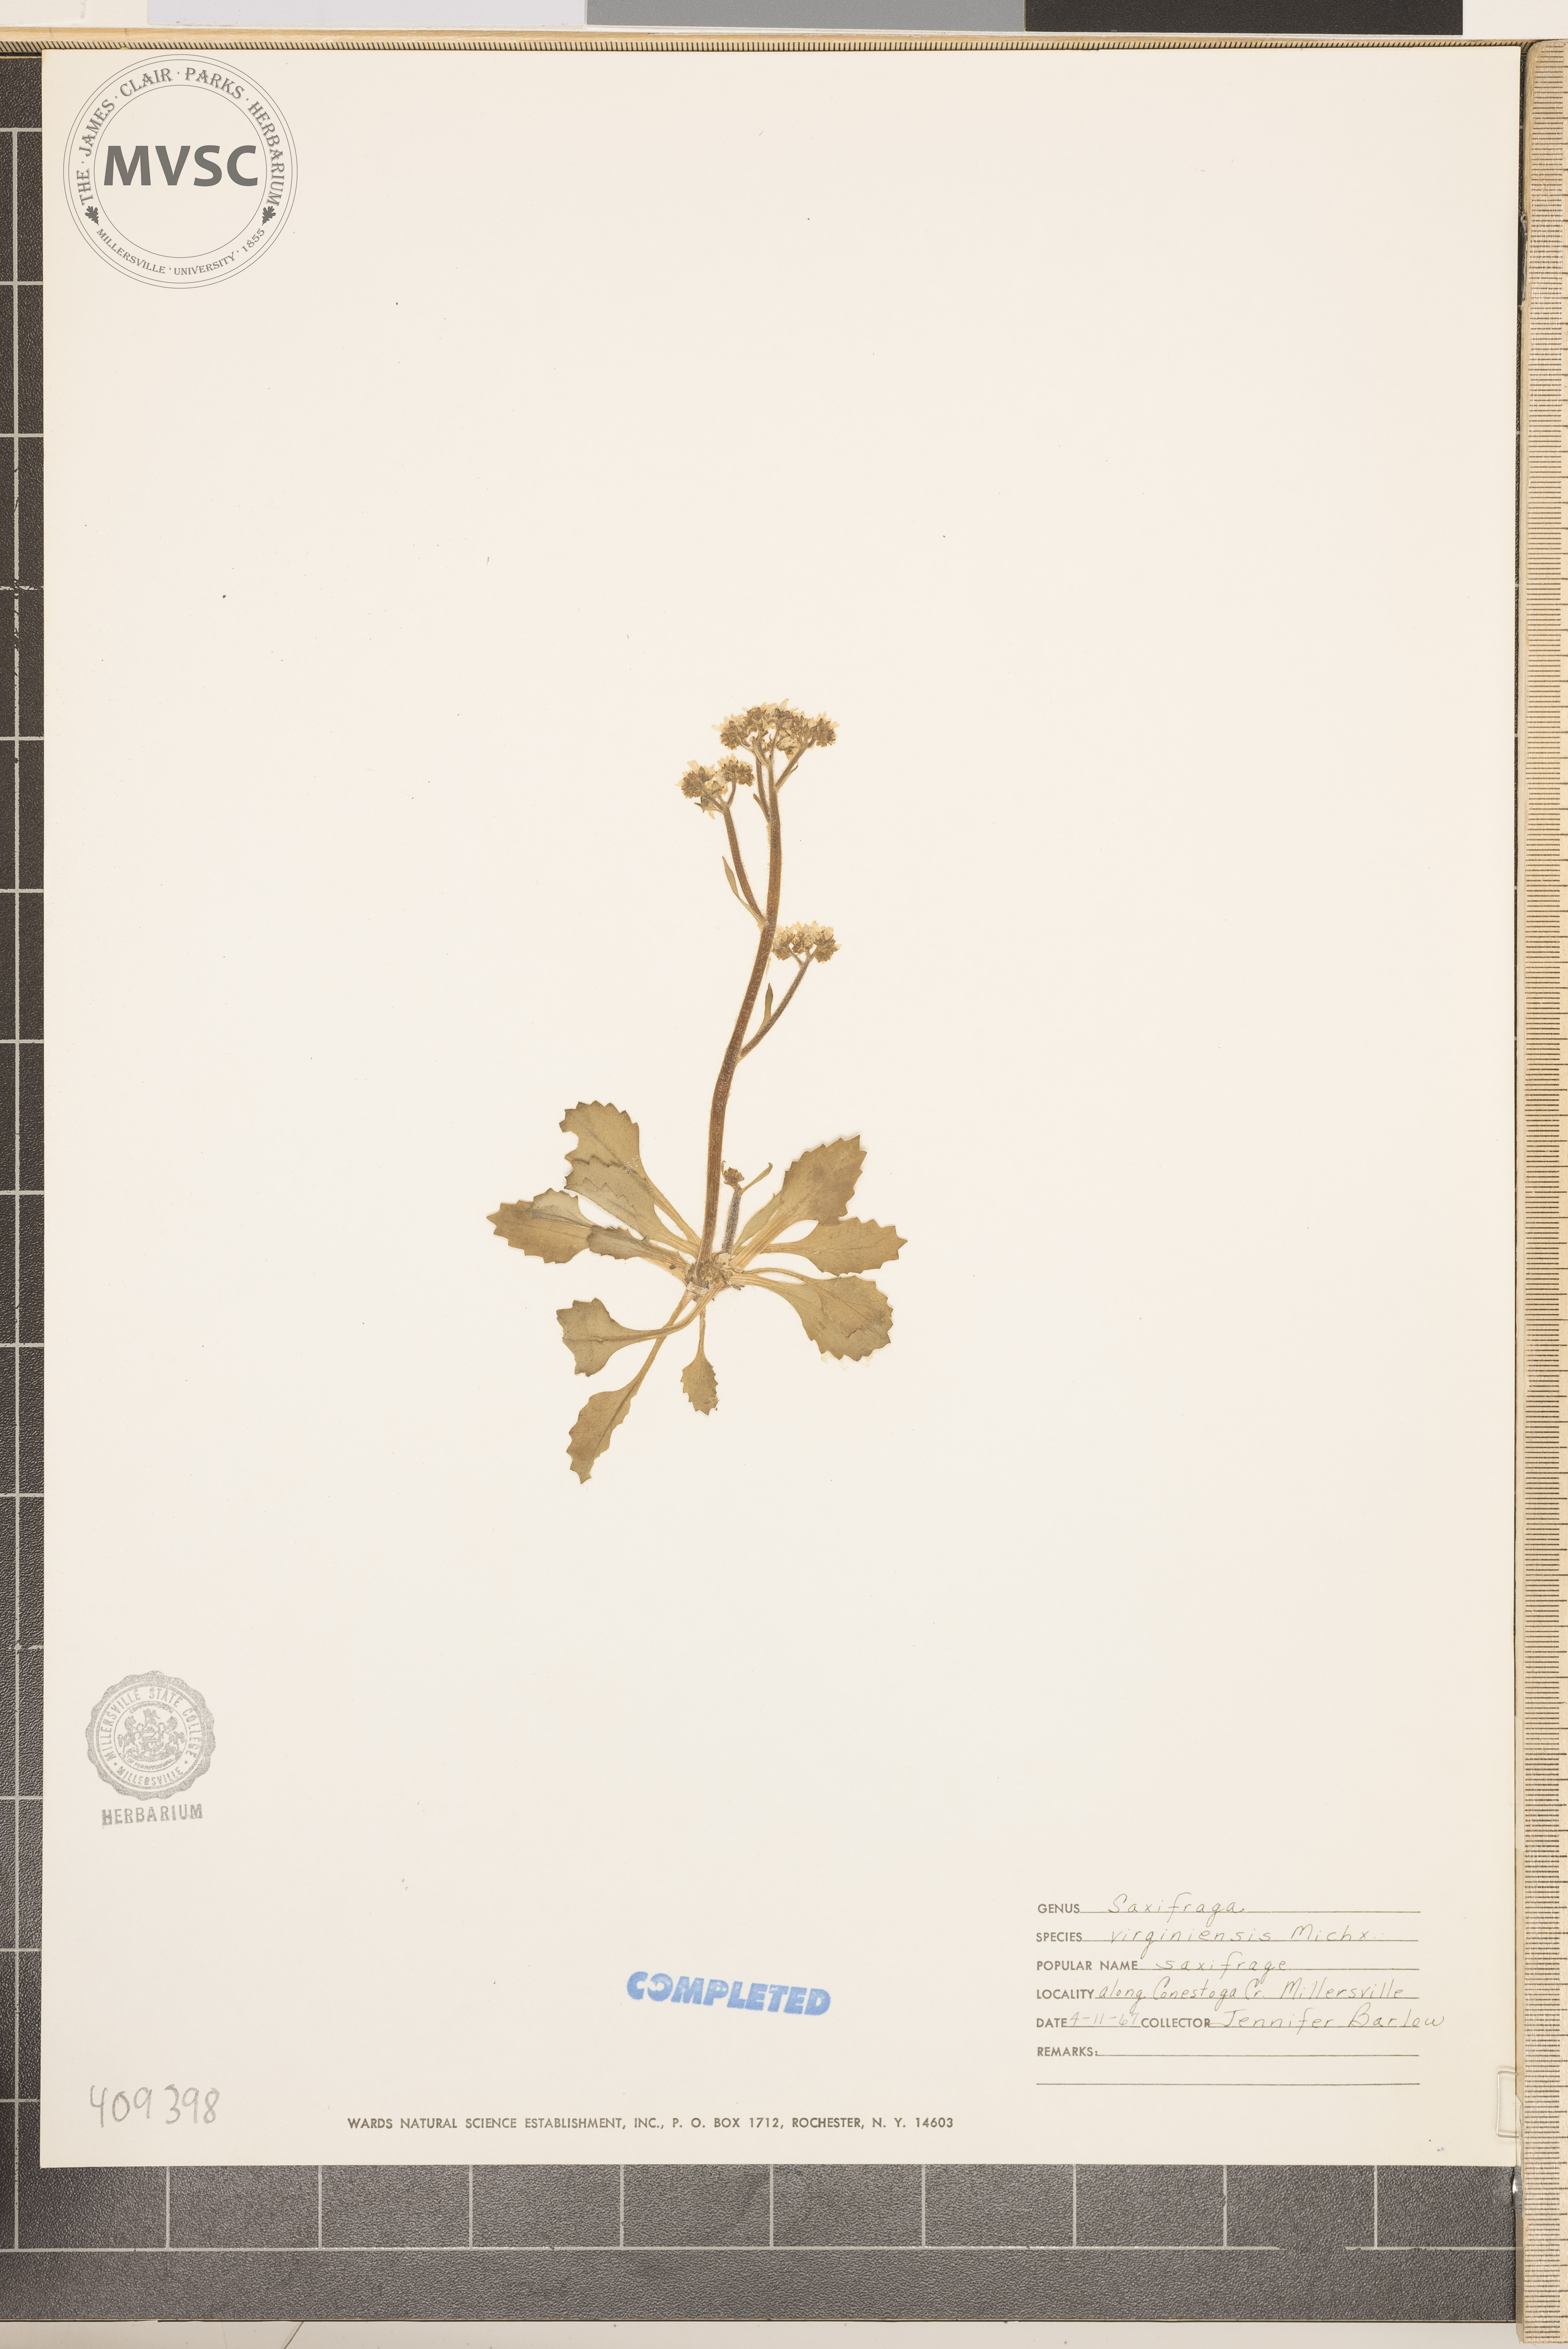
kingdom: Plantae
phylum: Tracheophyta
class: Magnoliopsida
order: Saxifragales
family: Saxifragaceae
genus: Micranthes
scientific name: Micranthes virginiensis
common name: Early saxifrage
